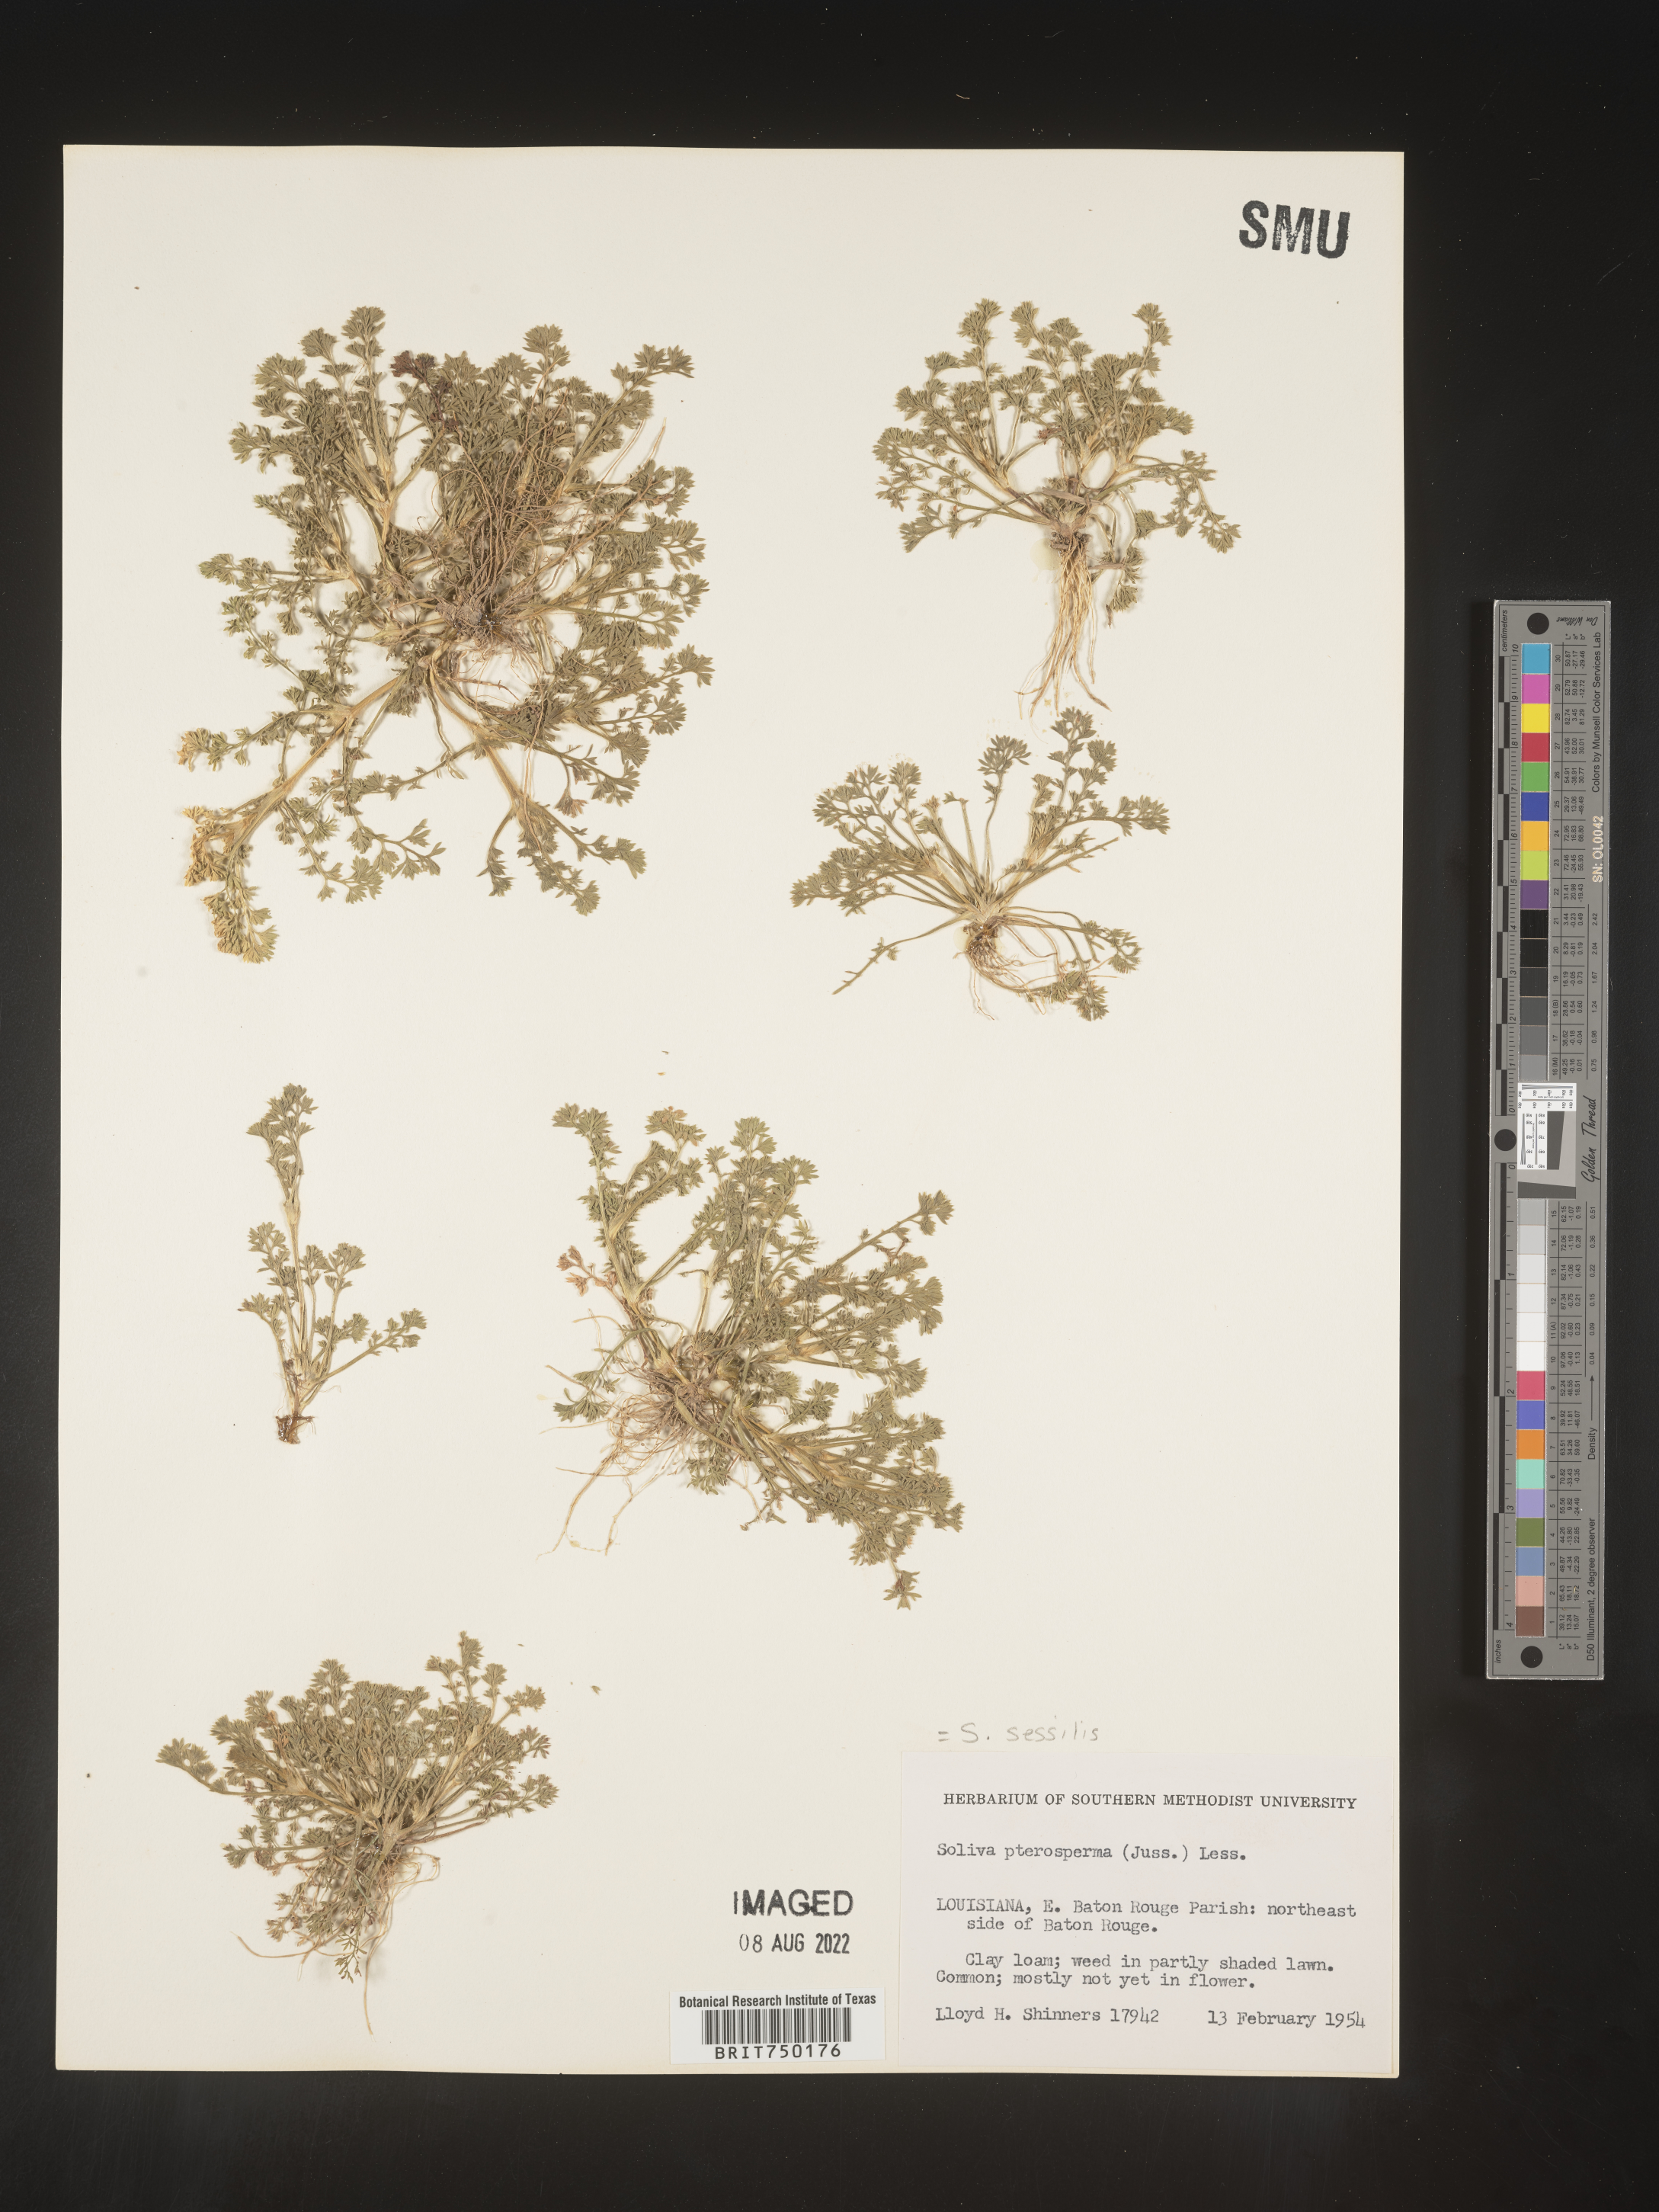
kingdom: Plantae
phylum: Tracheophyta
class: Magnoliopsida
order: Asterales
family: Asteraceae
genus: Soliva
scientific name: Soliva sessilis
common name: Field burrweed
